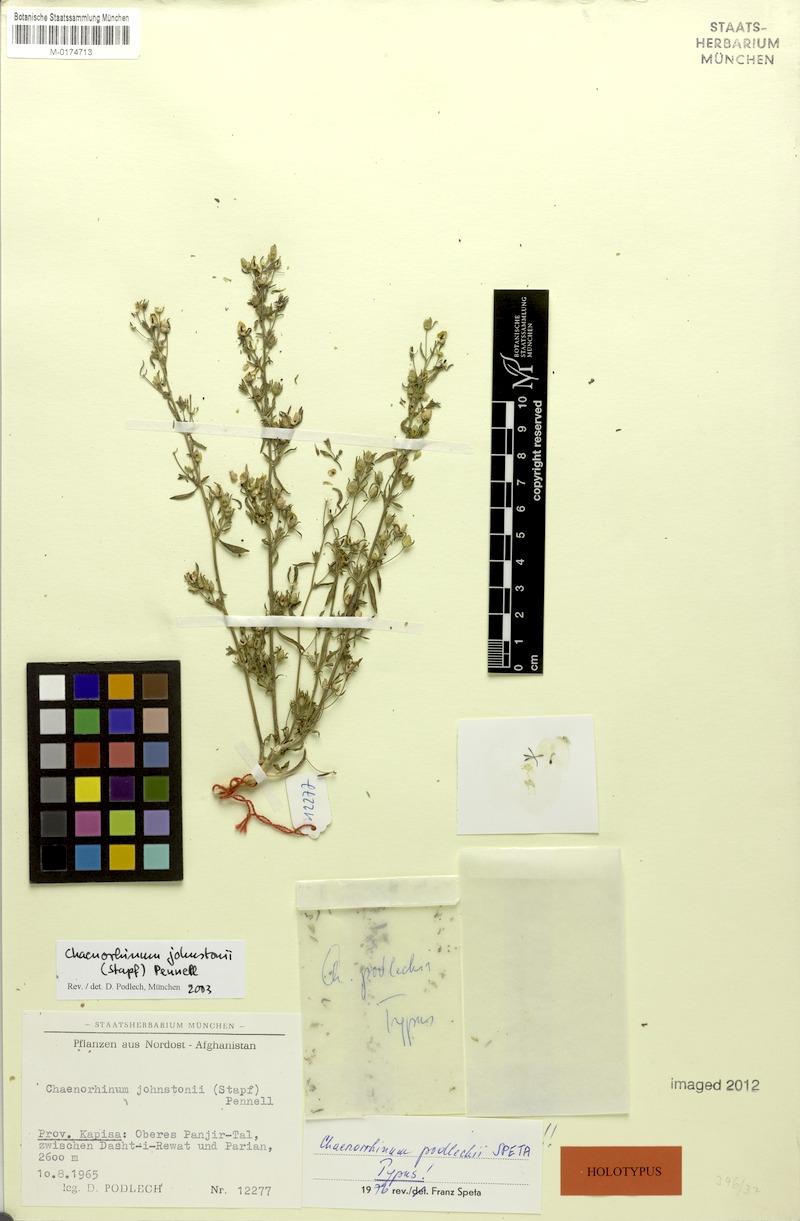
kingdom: Plantae
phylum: Tracheophyta
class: Magnoliopsida
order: Lamiales
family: Plantaginaceae
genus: Chaenorhinum
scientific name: Chaenorhinum johnstonii
